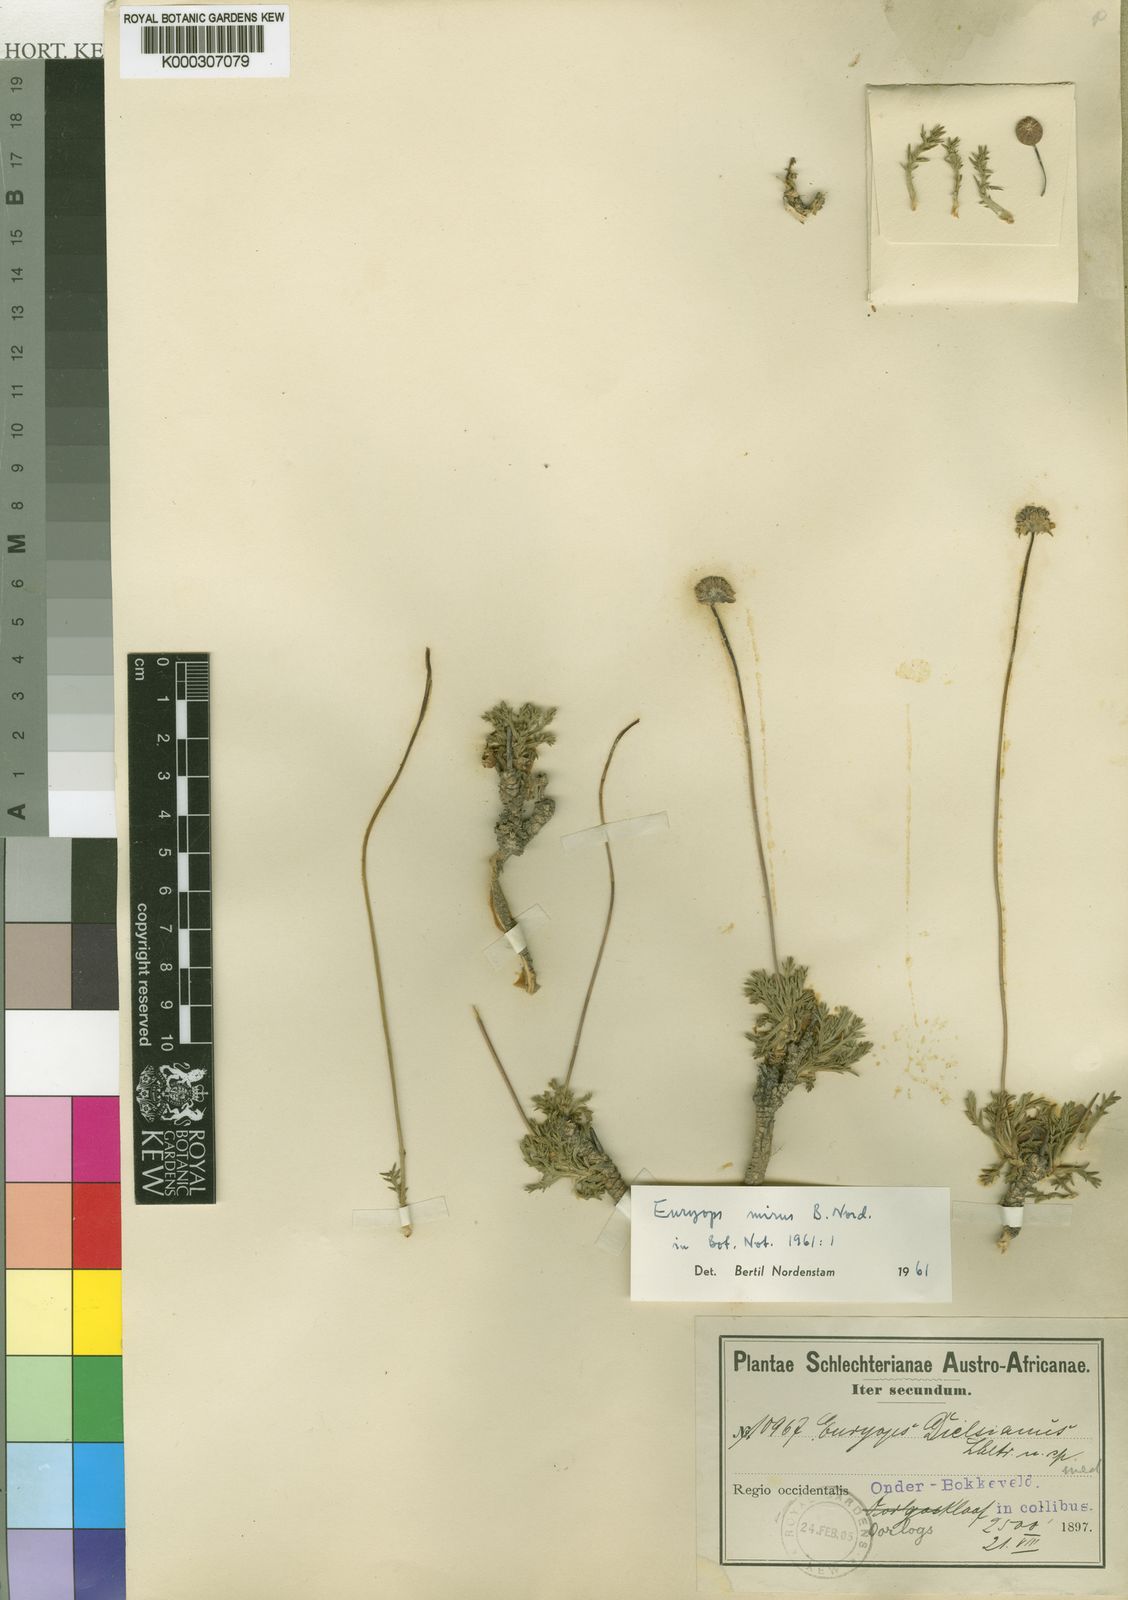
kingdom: Plantae
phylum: Tracheophyta
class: Magnoliopsida
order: Asterales
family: Asteraceae
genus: Euryops
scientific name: Euryops mirus
